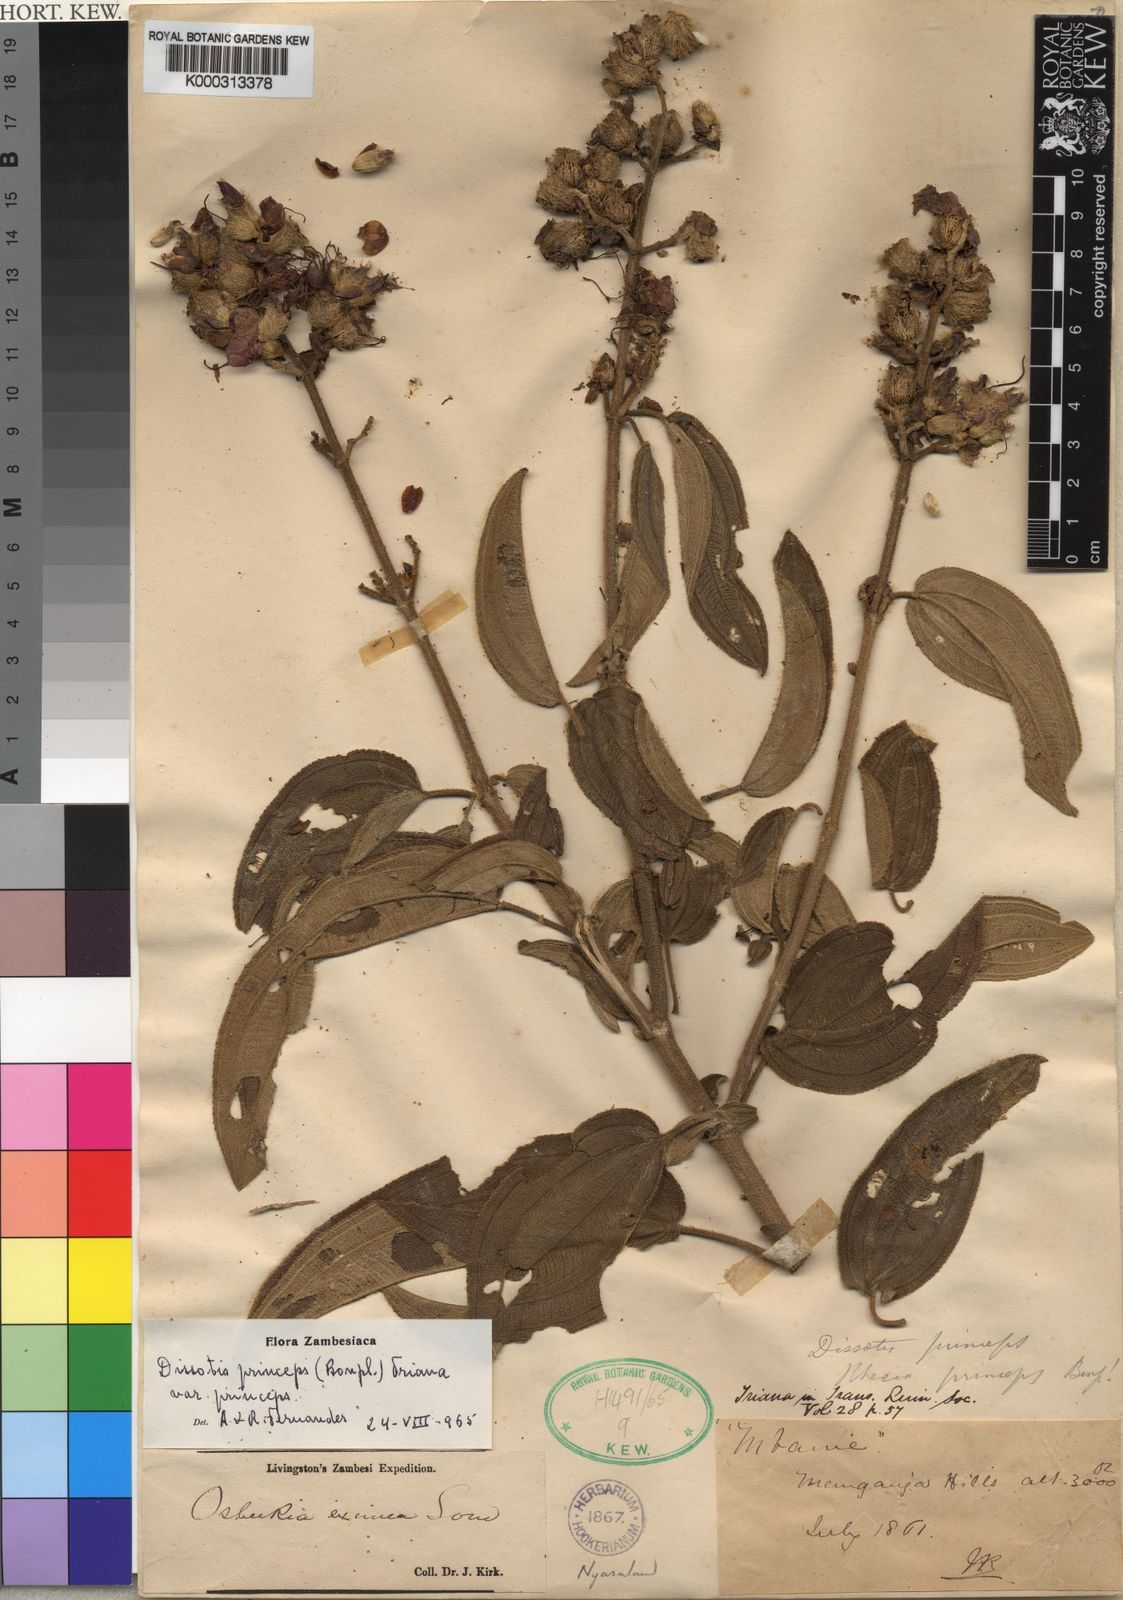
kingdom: Plantae
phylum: Tracheophyta
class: Magnoliopsida
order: Myrtales
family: Melastomataceae
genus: Rosettea
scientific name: Rosettea princeps
